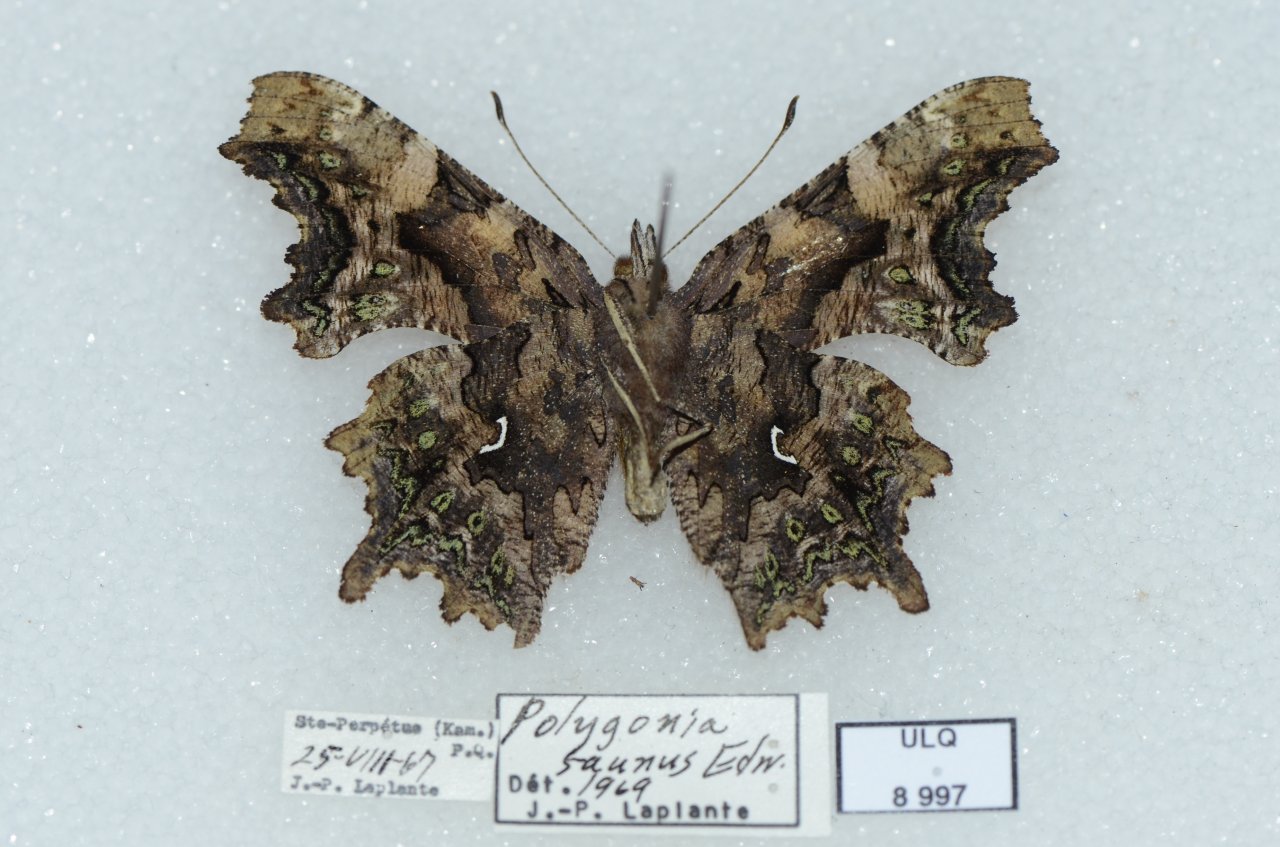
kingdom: Animalia
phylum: Arthropoda
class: Insecta
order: Lepidoptera
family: Nymphalidae
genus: Polygonia
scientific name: Polygonia faunus
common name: Green Comma
